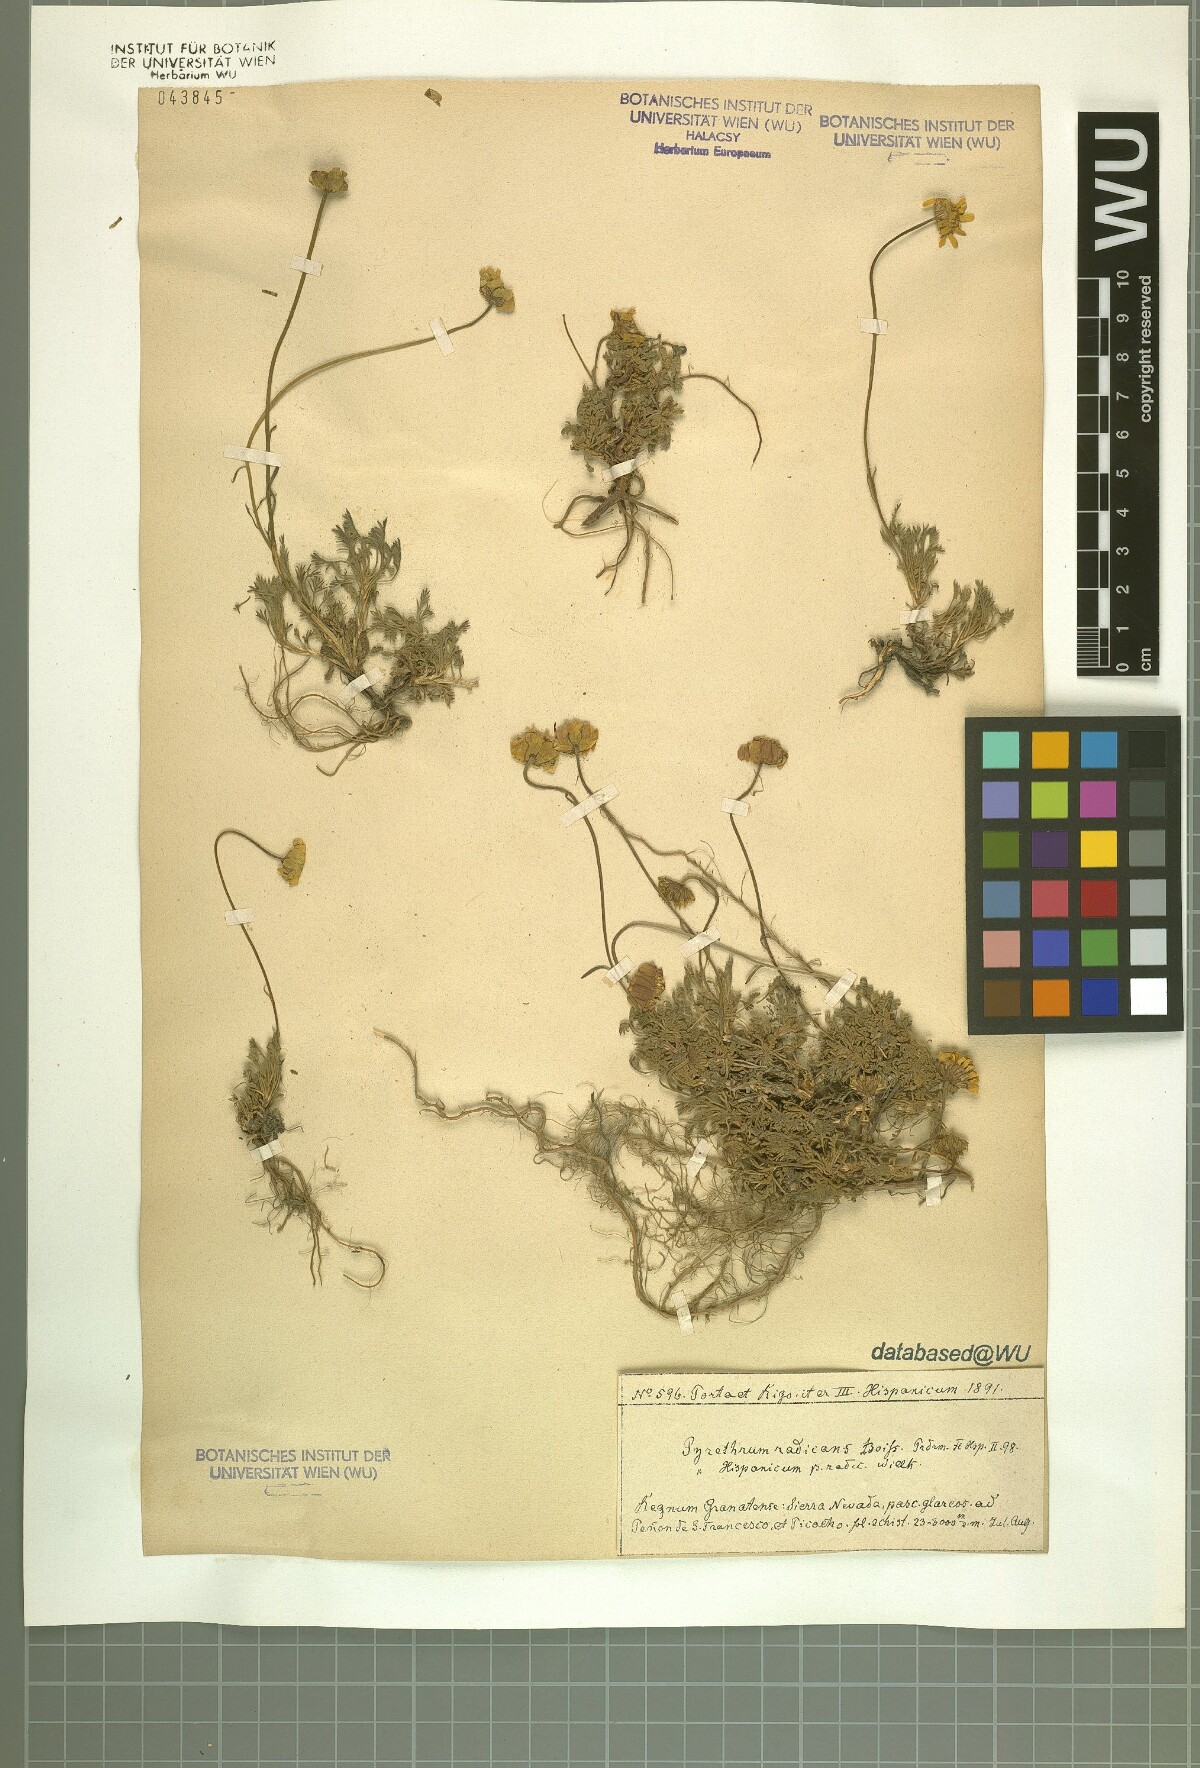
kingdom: Plantae
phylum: Tracheophyta
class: Magnoliopsida
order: Asterales
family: Asteraceae
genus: Leucanthemopsis
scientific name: Leucanthemopsis pectinata
